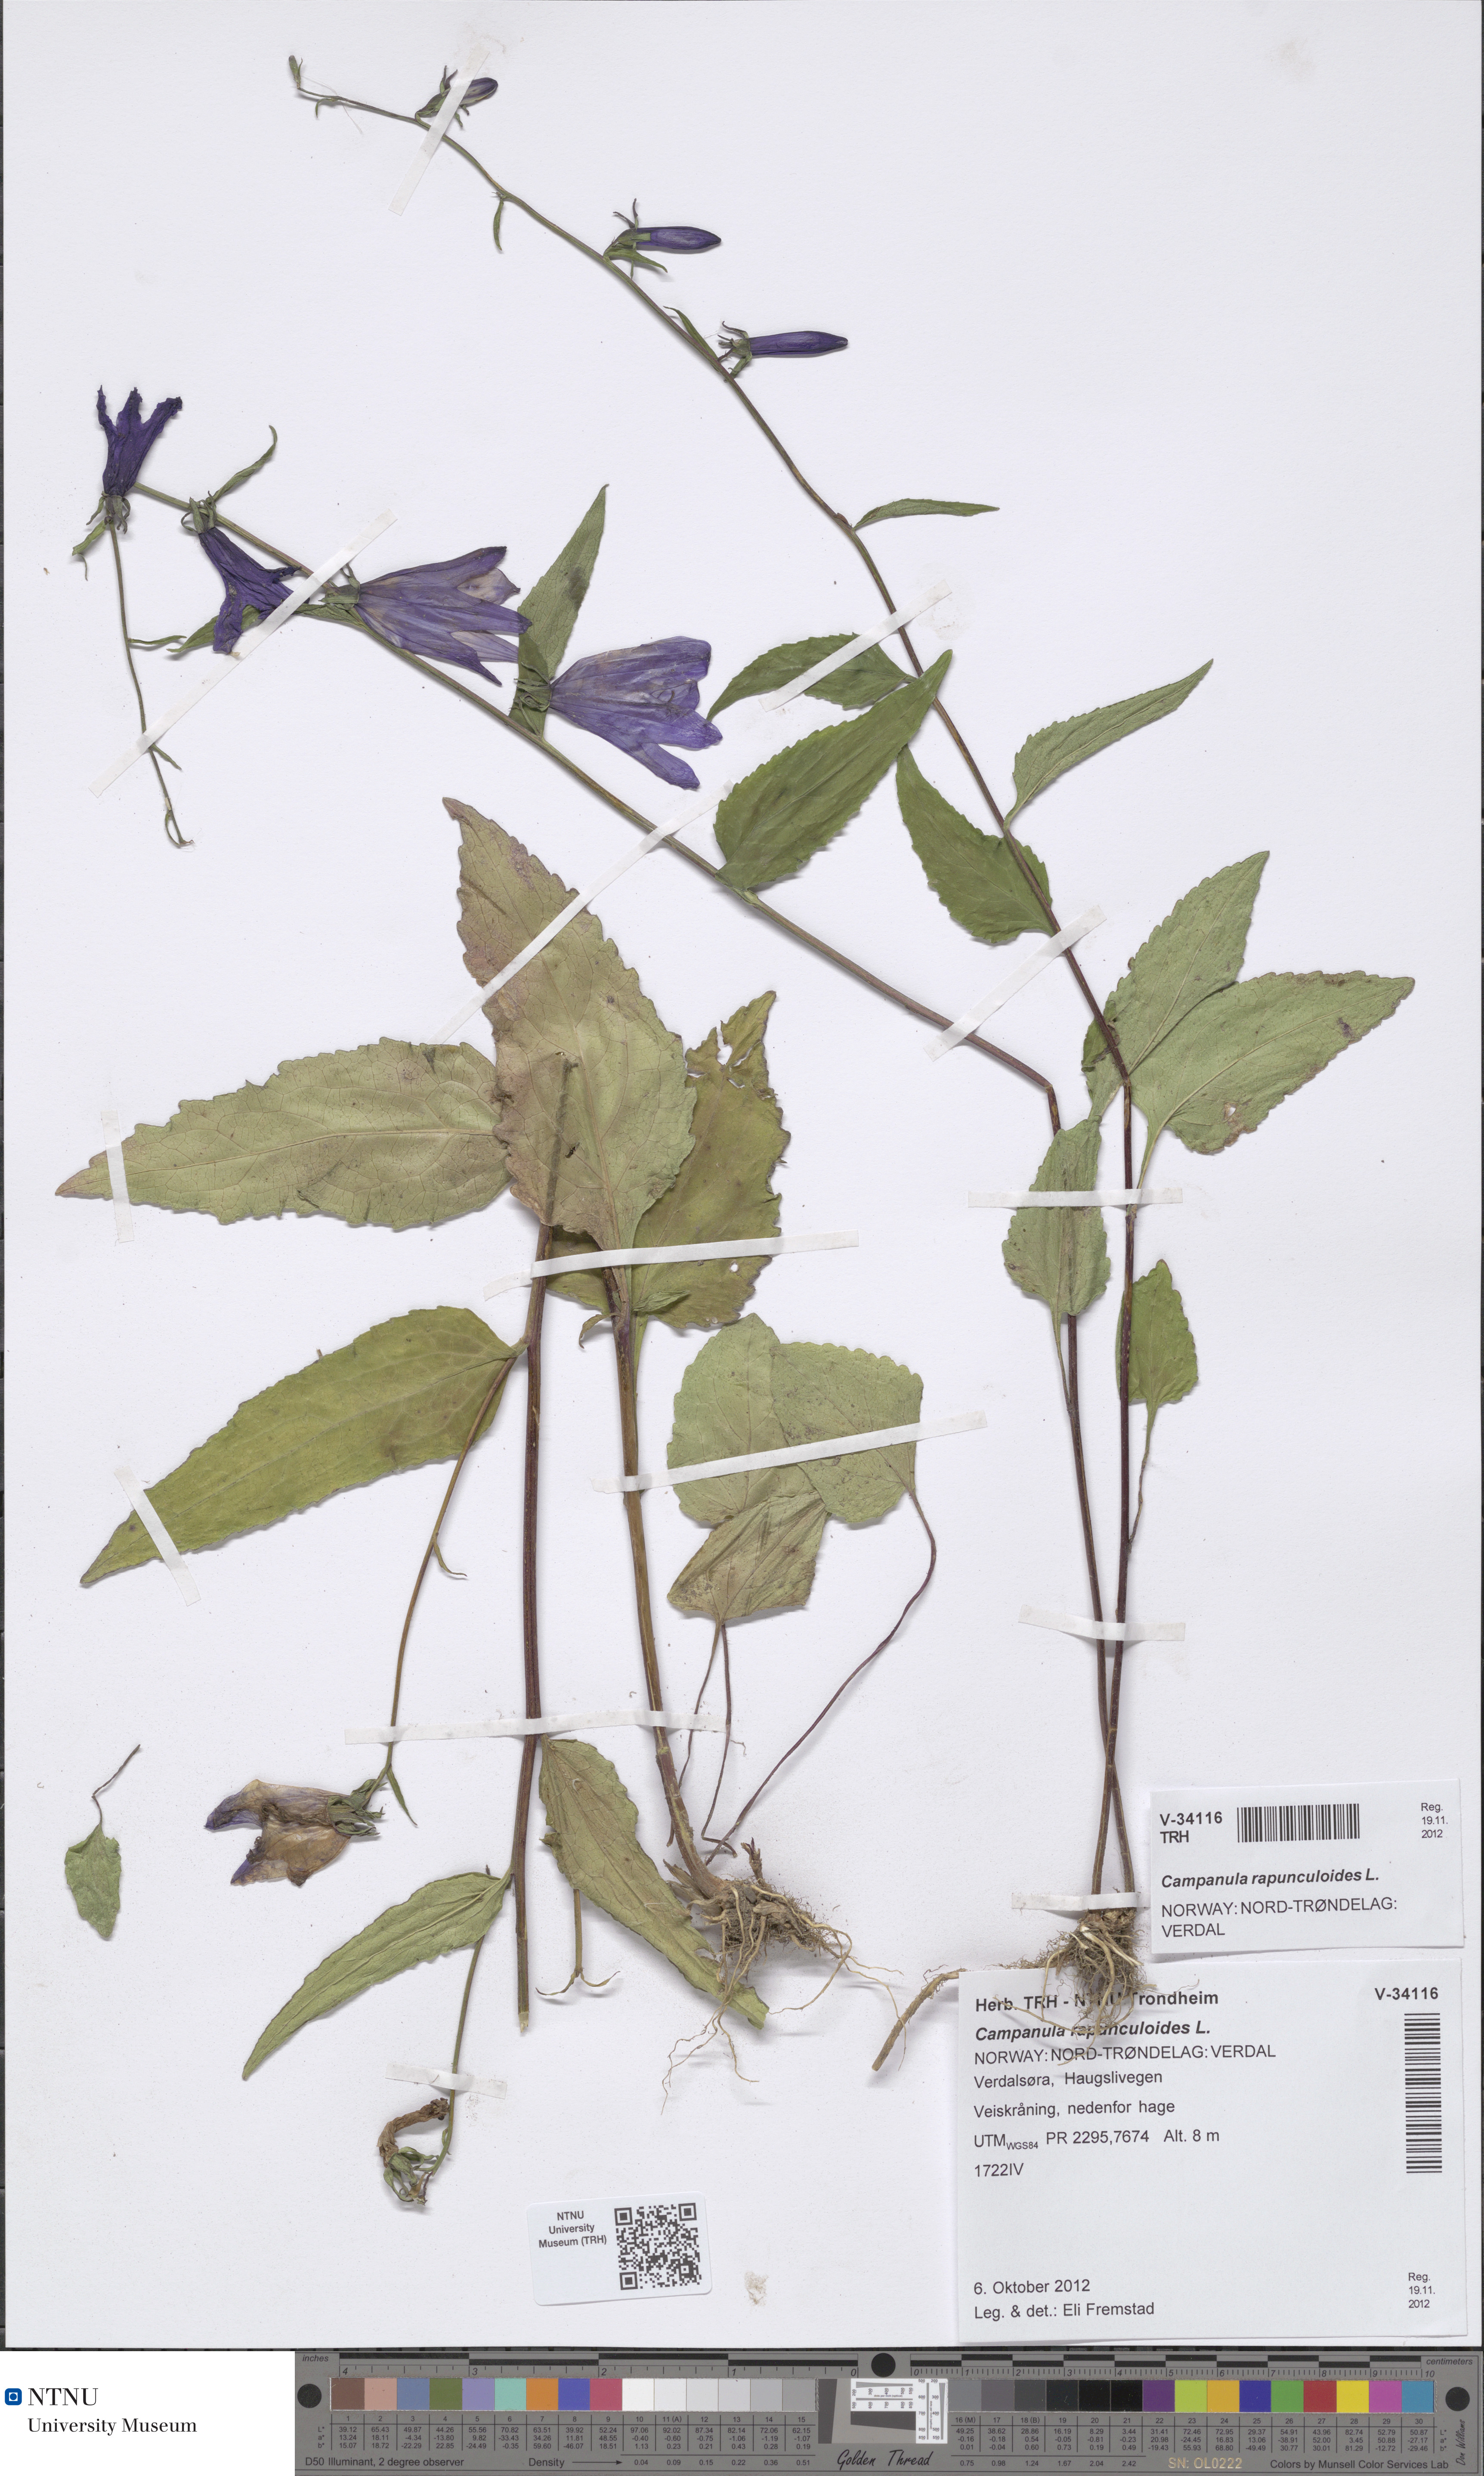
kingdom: Plantae
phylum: Tracheophyta
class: Magnoliopsida
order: Asterales
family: Campanulaceae
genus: Campanula
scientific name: Campanula rapunculoides
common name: Creeping bellflower
